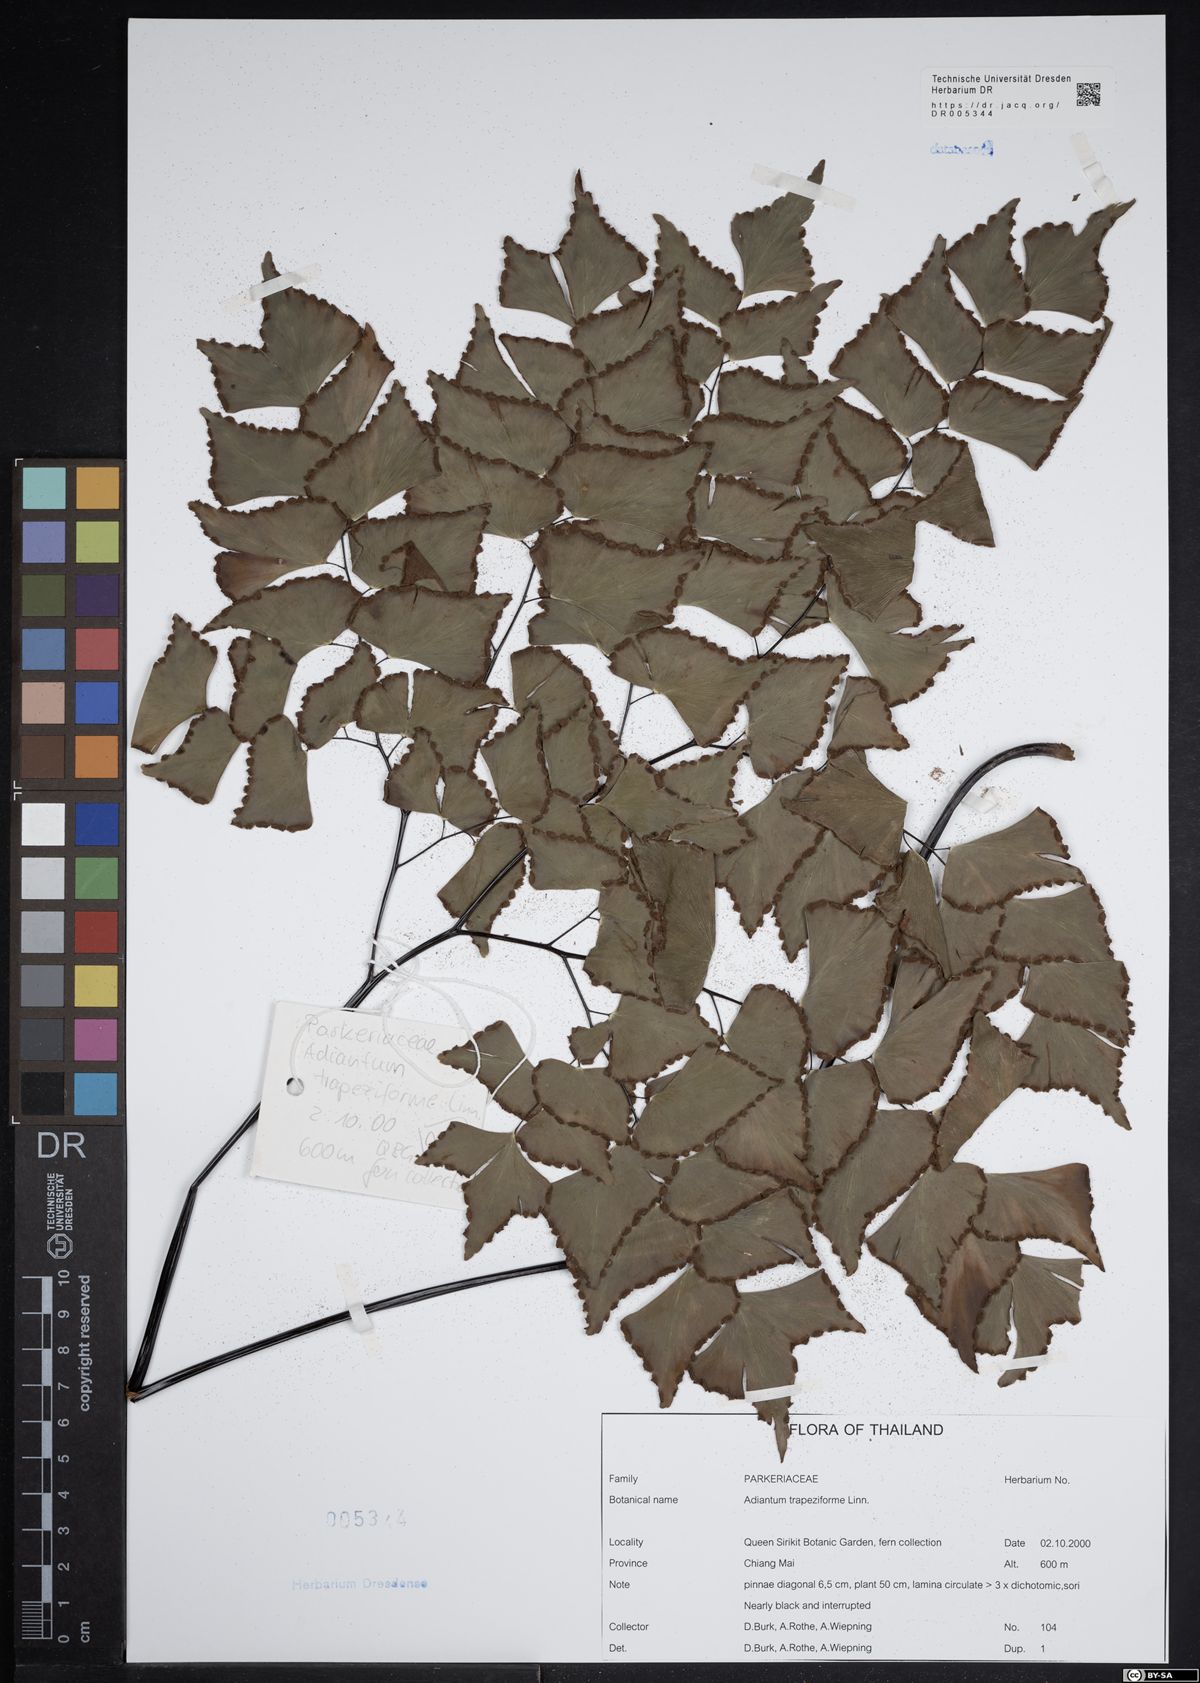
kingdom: Plantae
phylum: Tracheophyta
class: Polypodiopsida
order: Polypodiales
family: Pteridaceae
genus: Adiantum
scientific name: Adiantum trapeziforme
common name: Diamond maidenhair
